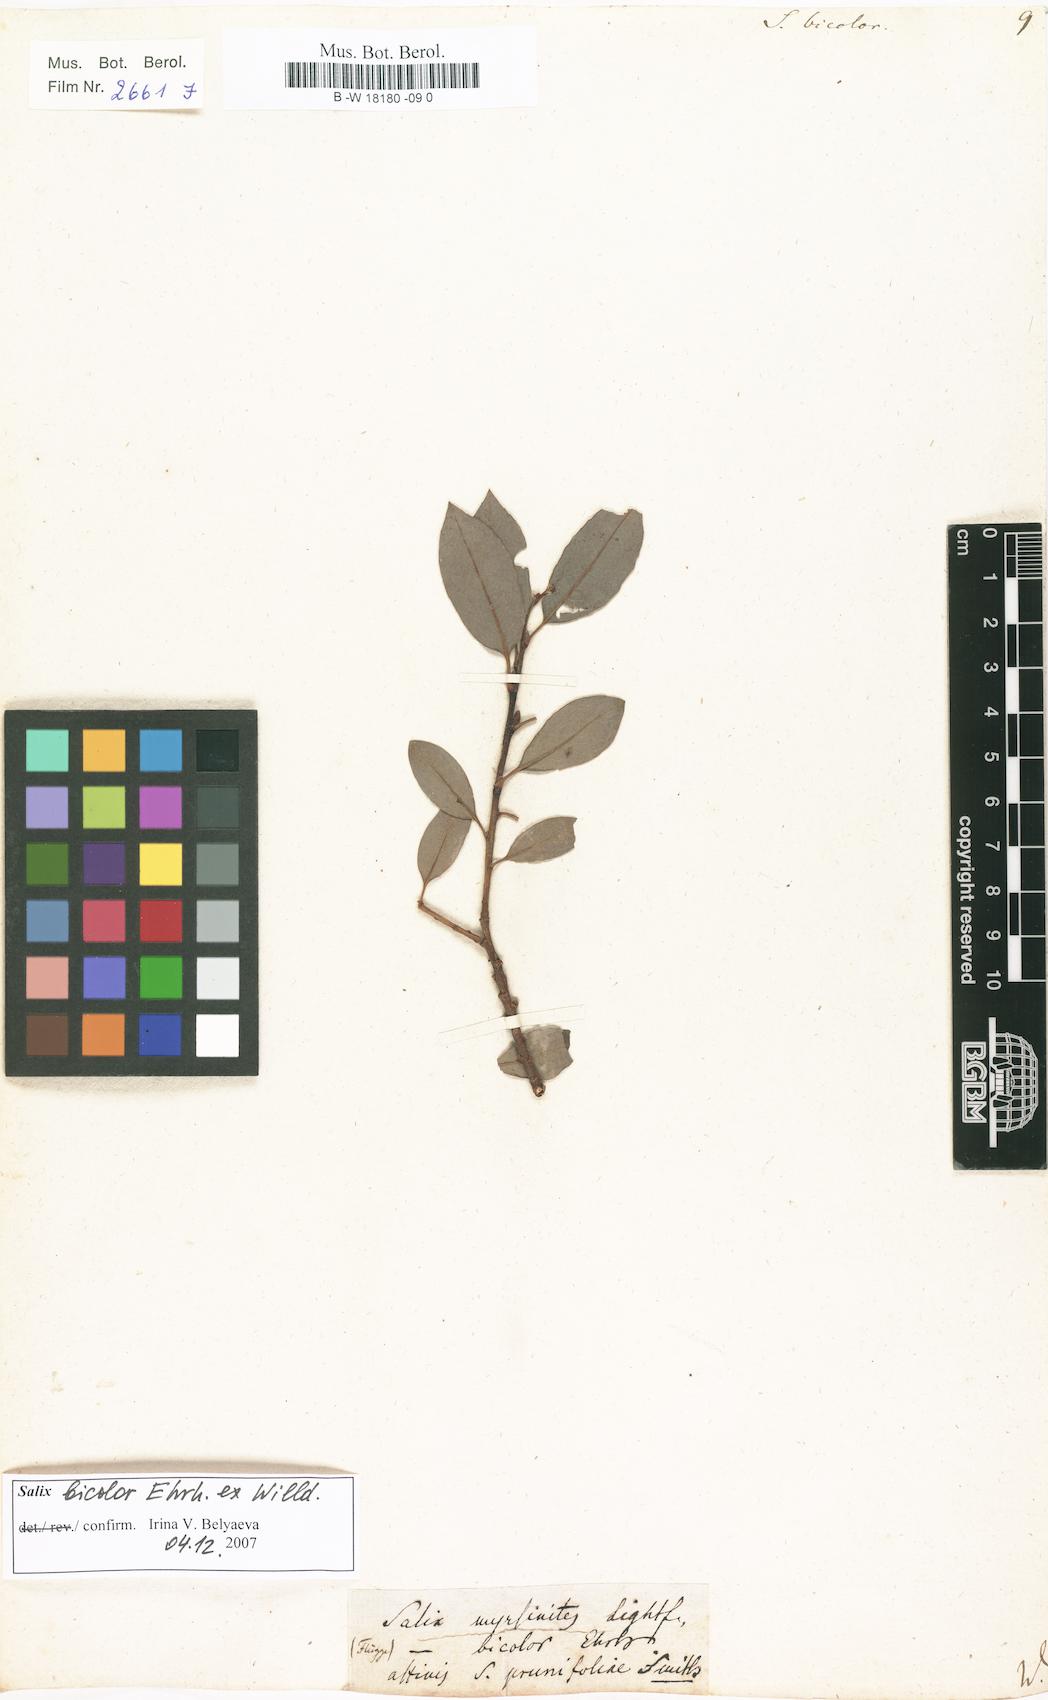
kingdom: Plantae
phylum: Tracheophyta
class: Magnoliopsida
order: Malpighiales
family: Salicaceae
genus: Salix
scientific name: Salix bicolor
